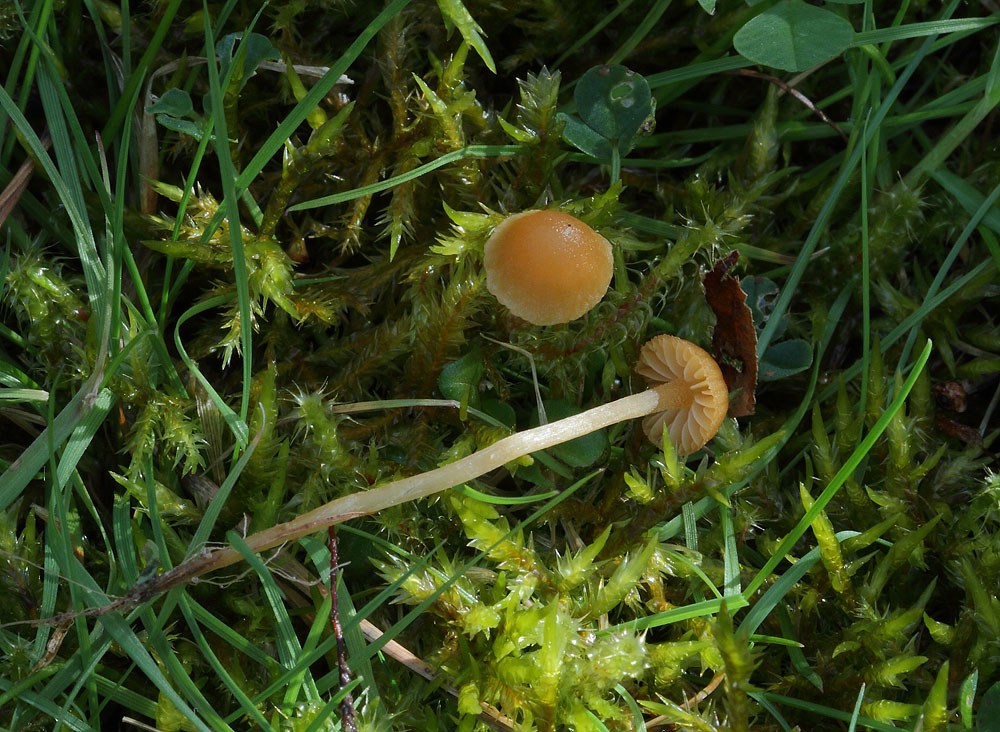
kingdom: Fungi
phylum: Basidiomycota
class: Agaricomycetes
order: Agaricales
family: Hymenogastraceae
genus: Galerina
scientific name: Galerina clavata
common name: kær-hjelmhat
